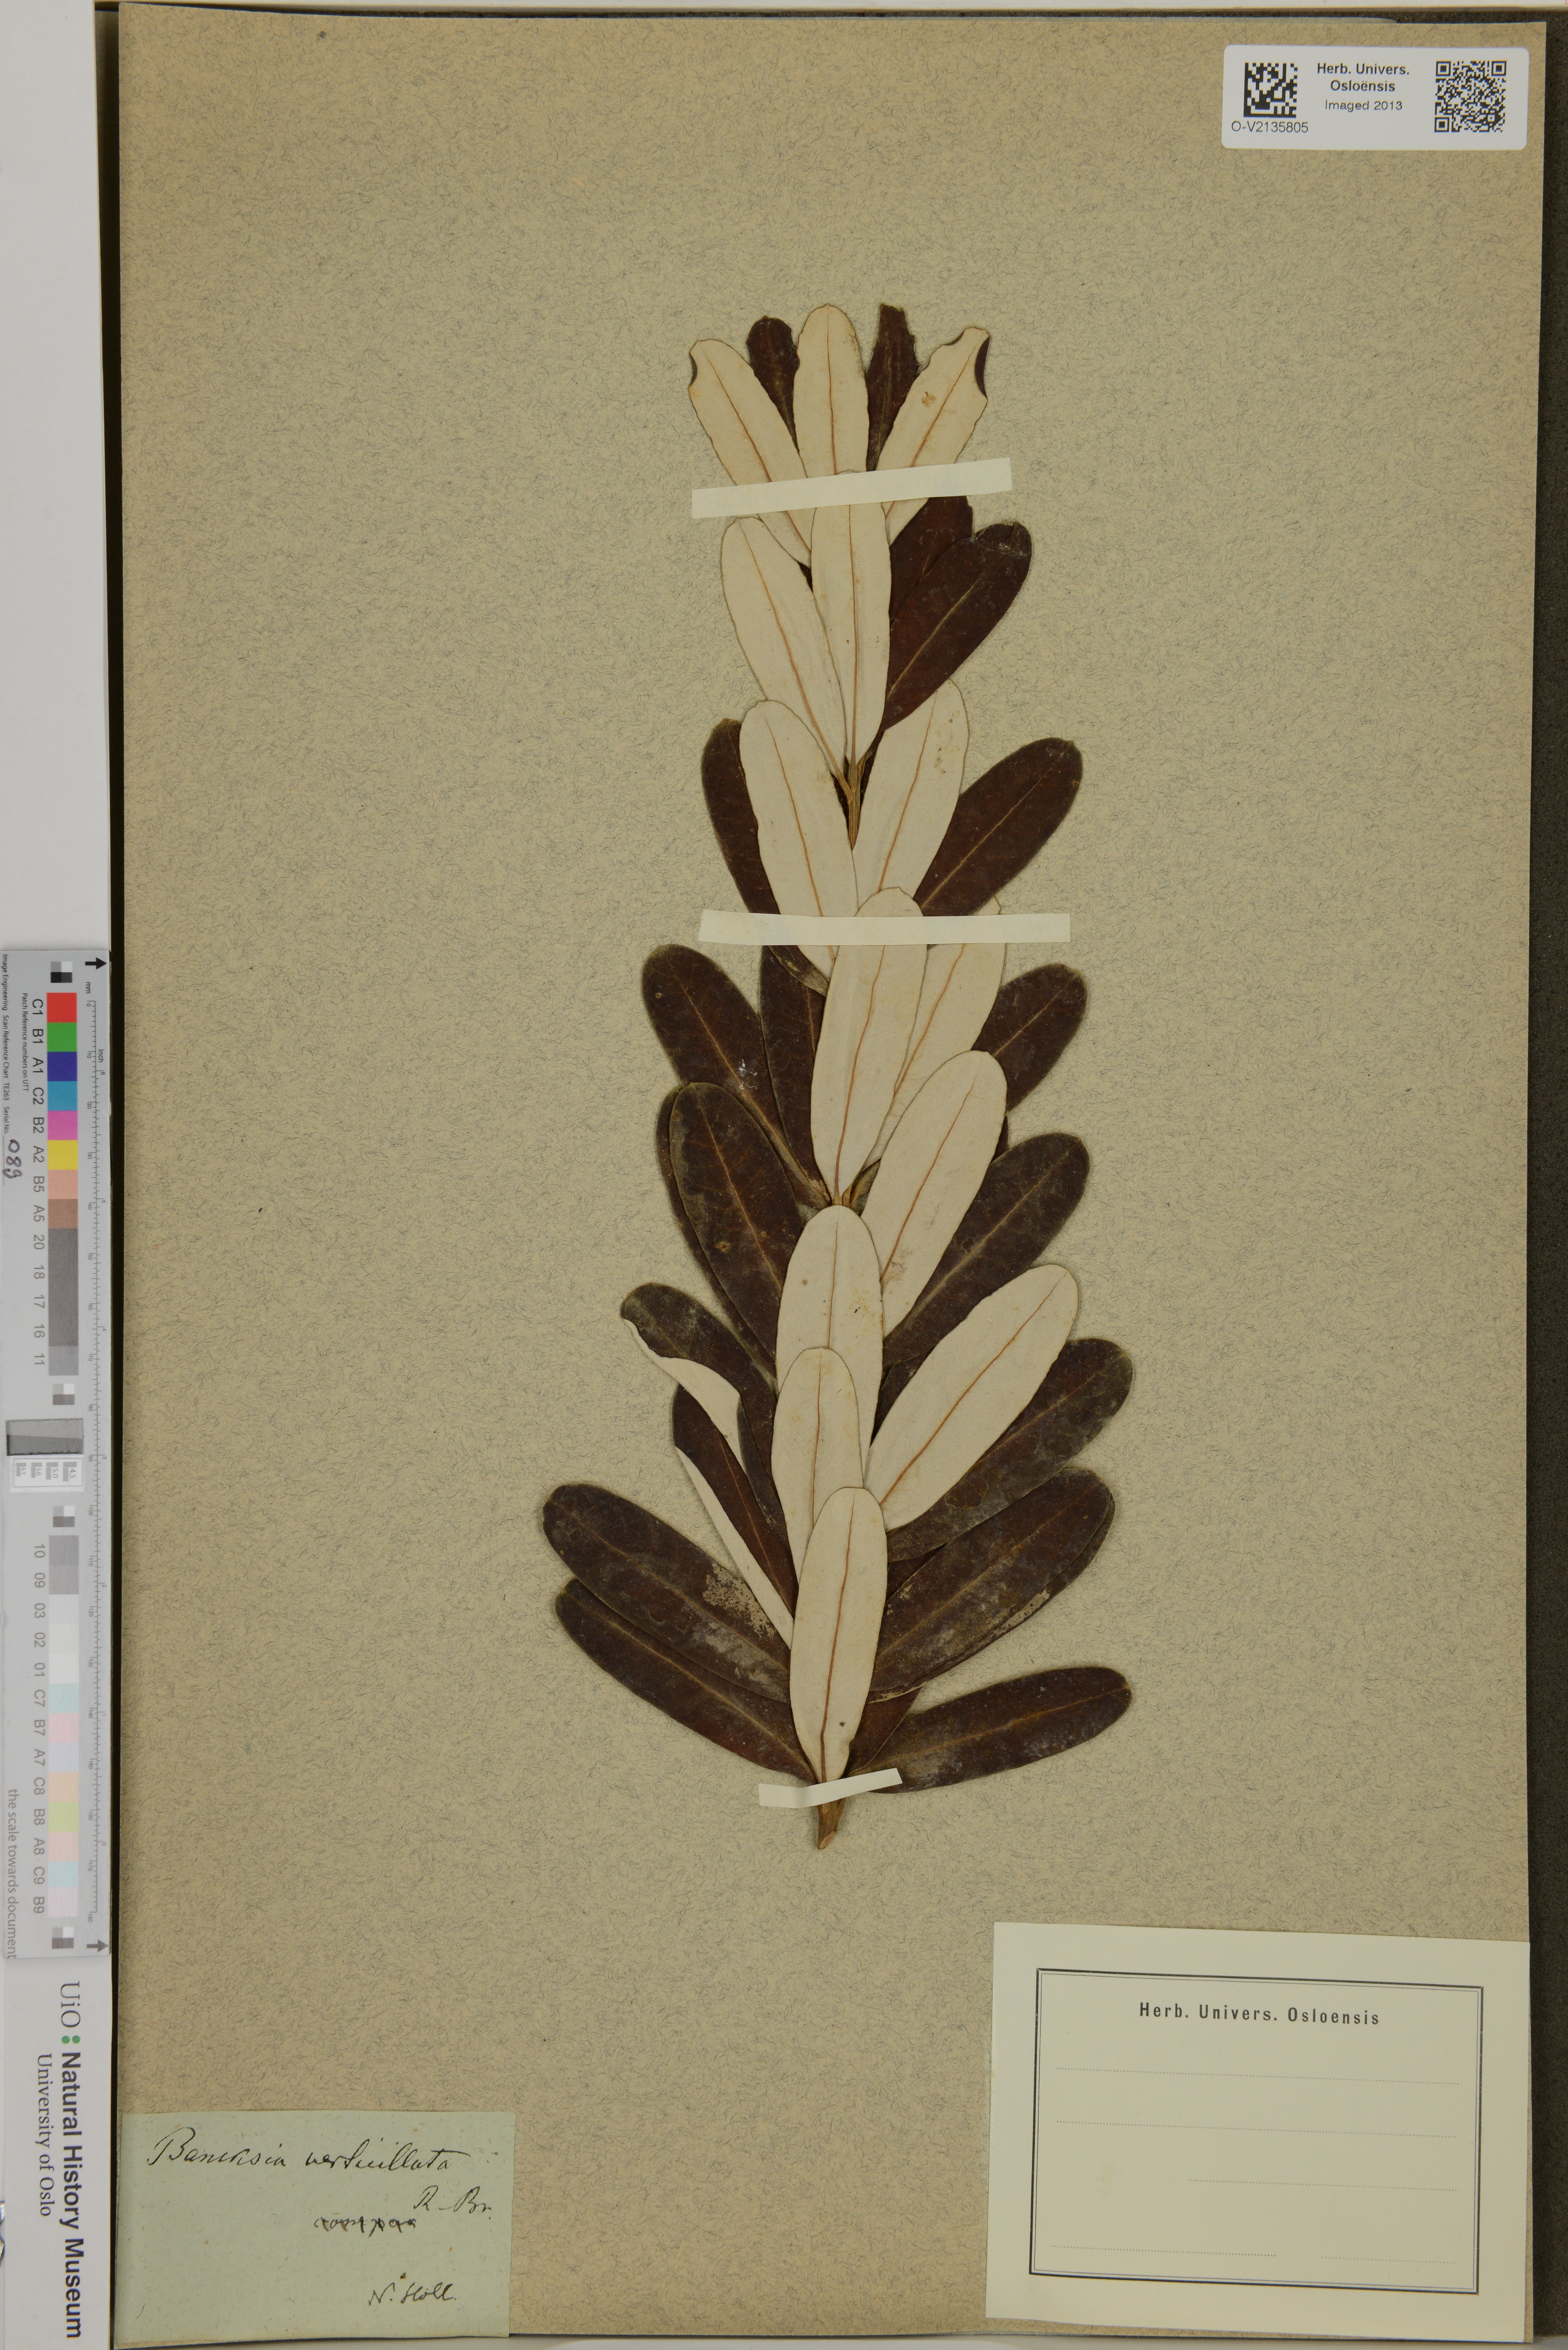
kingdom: Plantae
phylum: Tracheophyta
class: Magnoliopsida
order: Proteales
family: Proteaceae
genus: Banksia
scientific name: Banksia verticiliata
